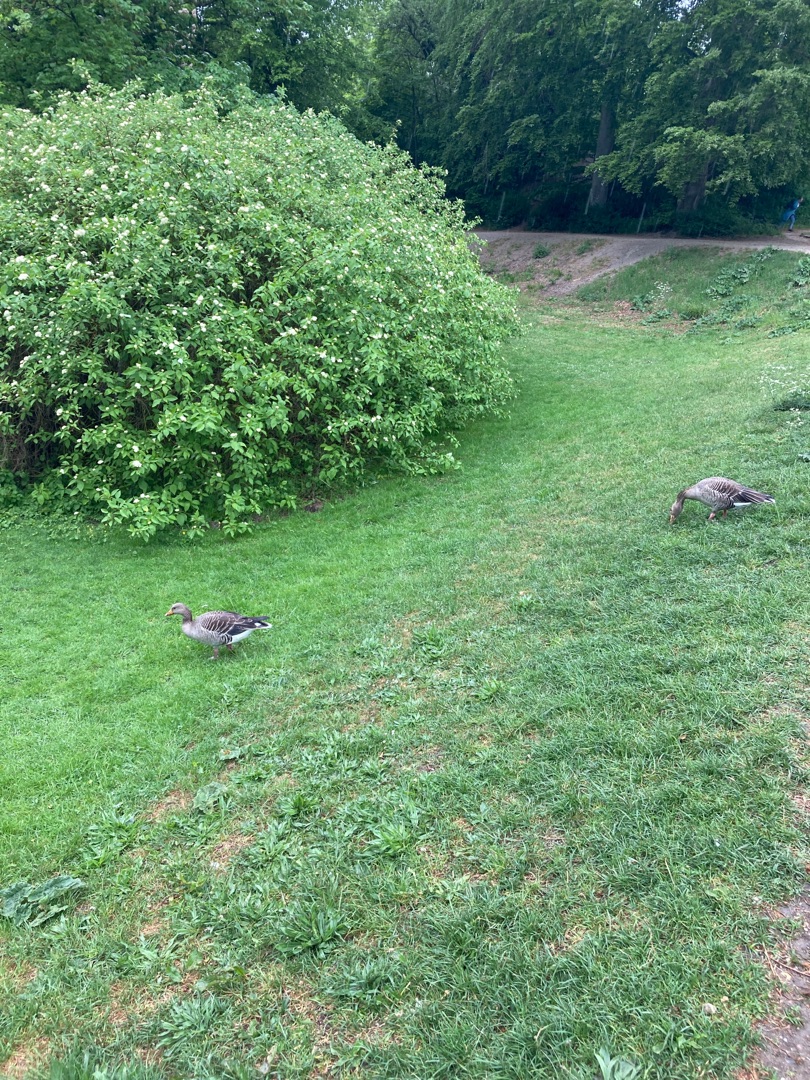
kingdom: Animalia
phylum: Chordata
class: Aves
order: Anseriformes
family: Anatidae
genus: Anser
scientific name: Anser anser
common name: Grågås
